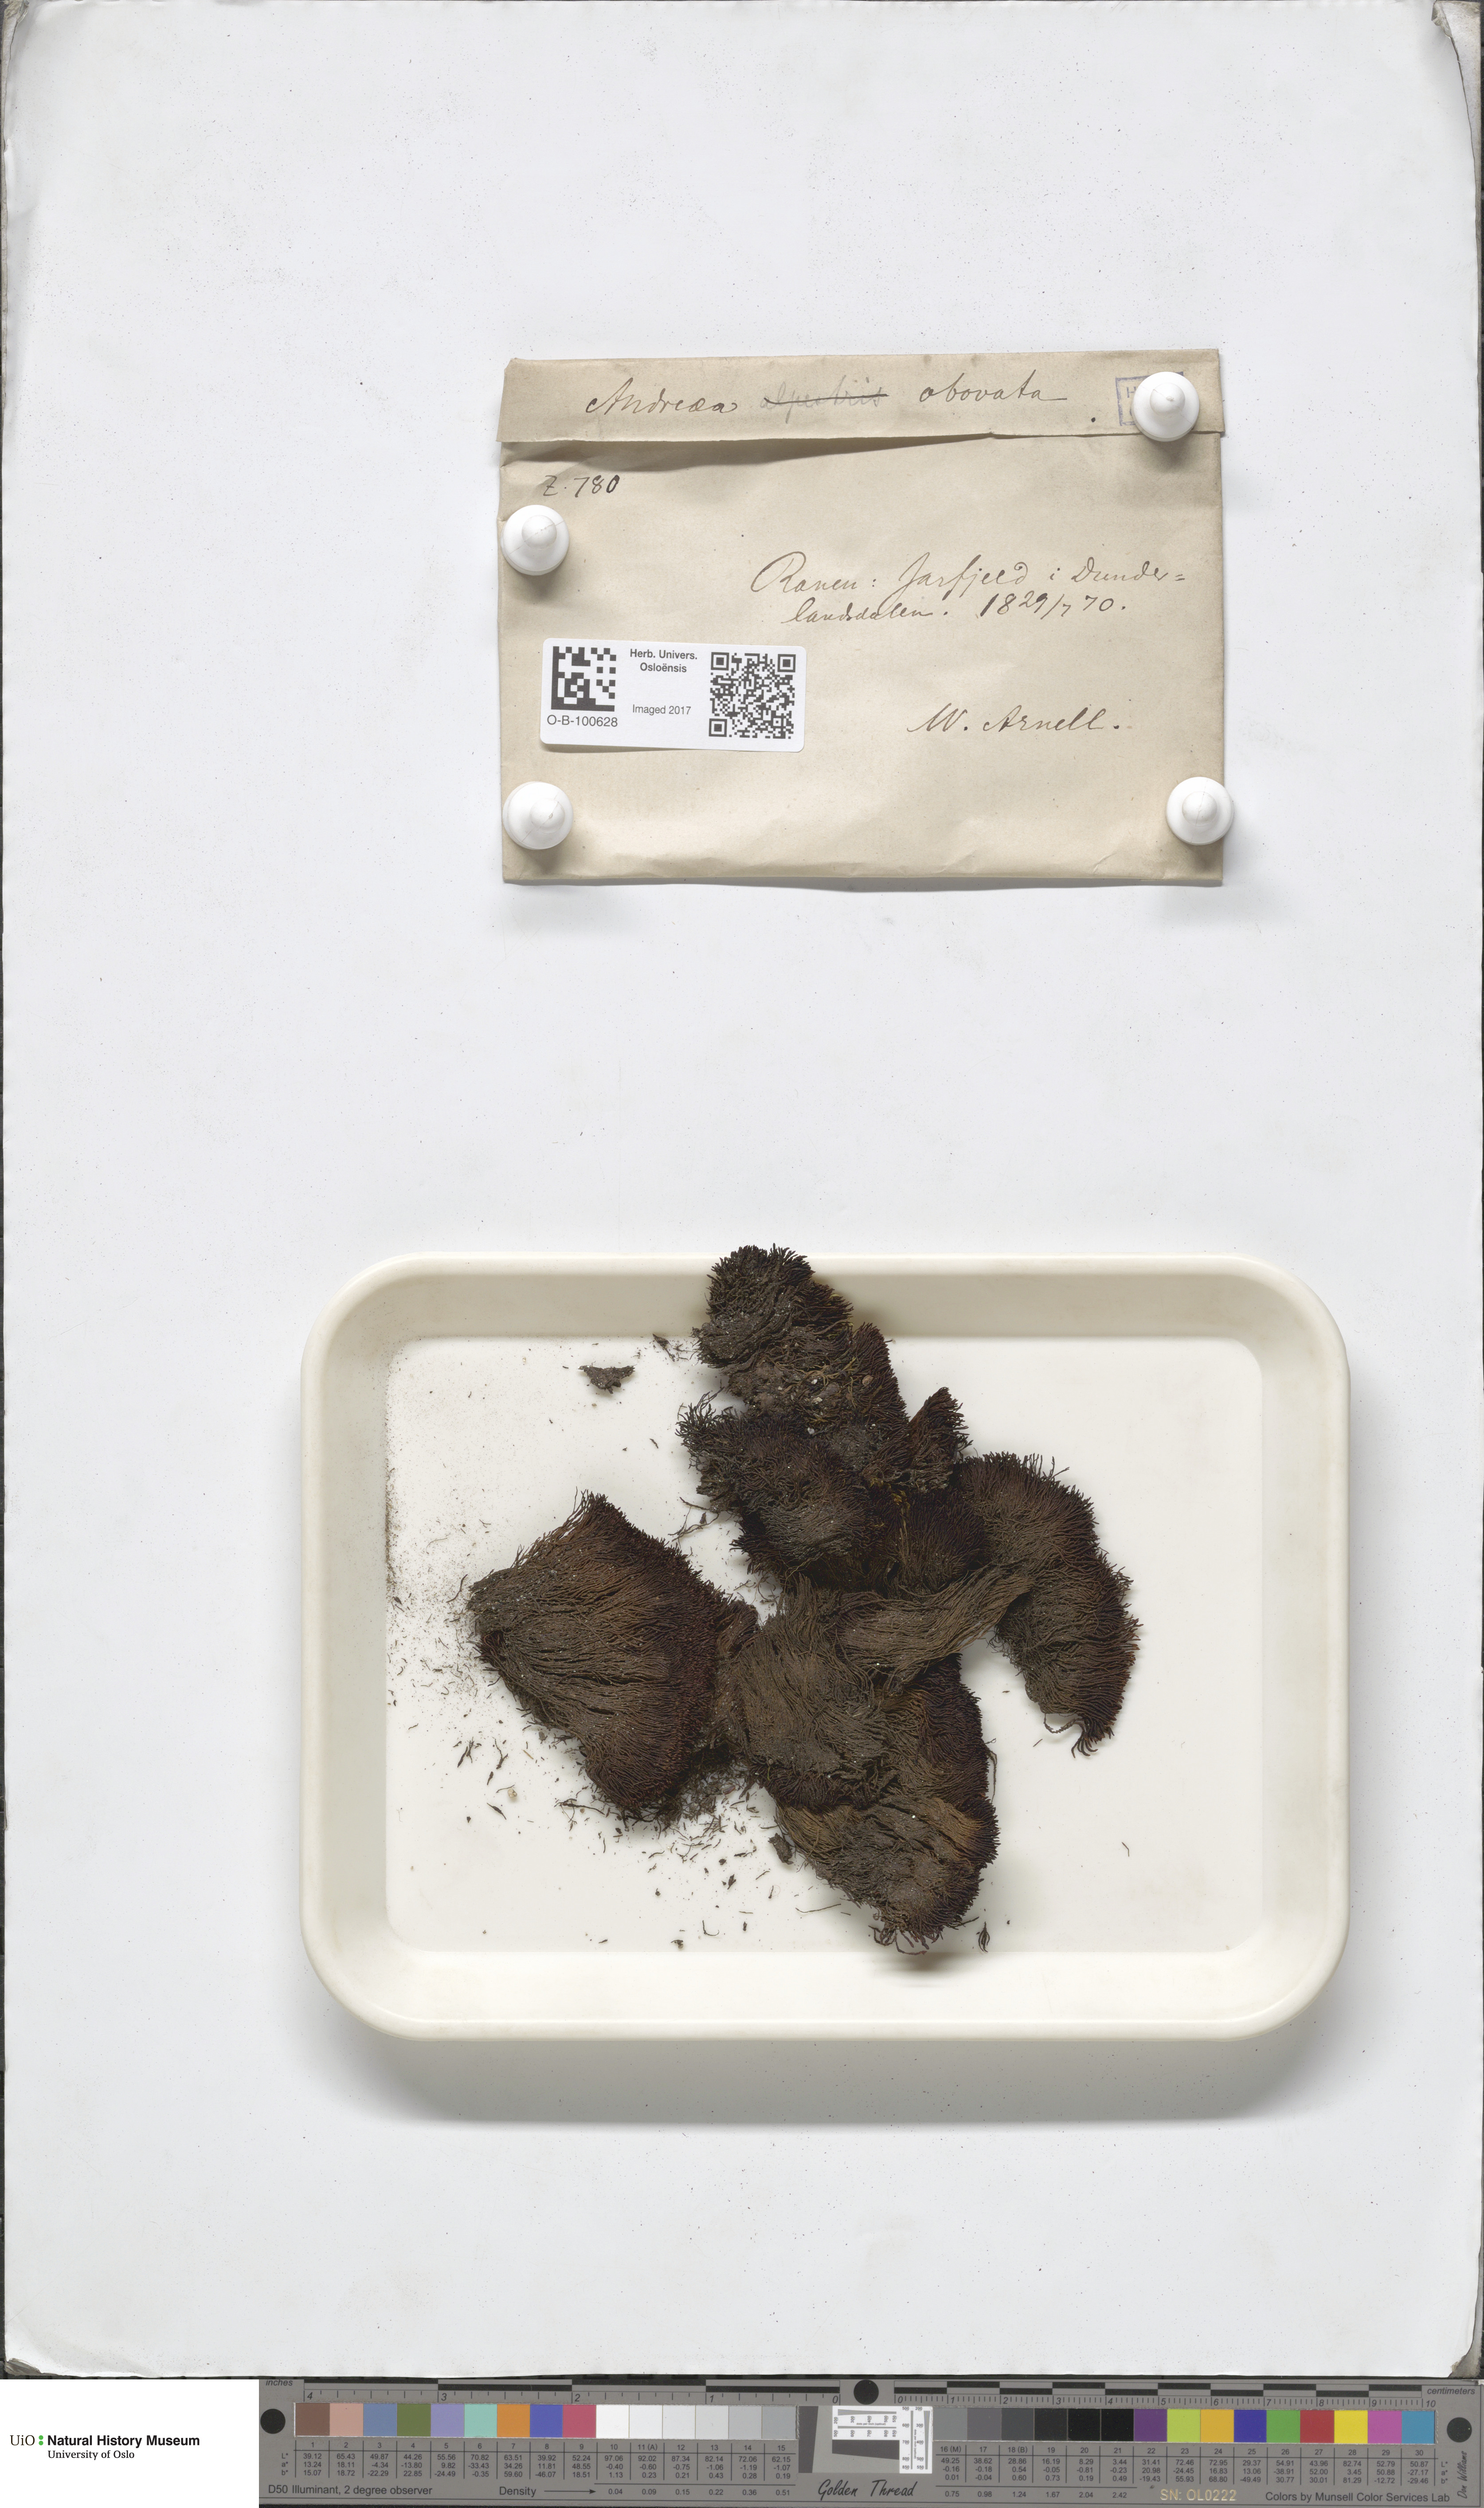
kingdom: Plantae
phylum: Bryophyta
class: Andreaeopsida
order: Andreaeales
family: Andreaeaceae
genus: Andreaea
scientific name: Andreaea alpina
